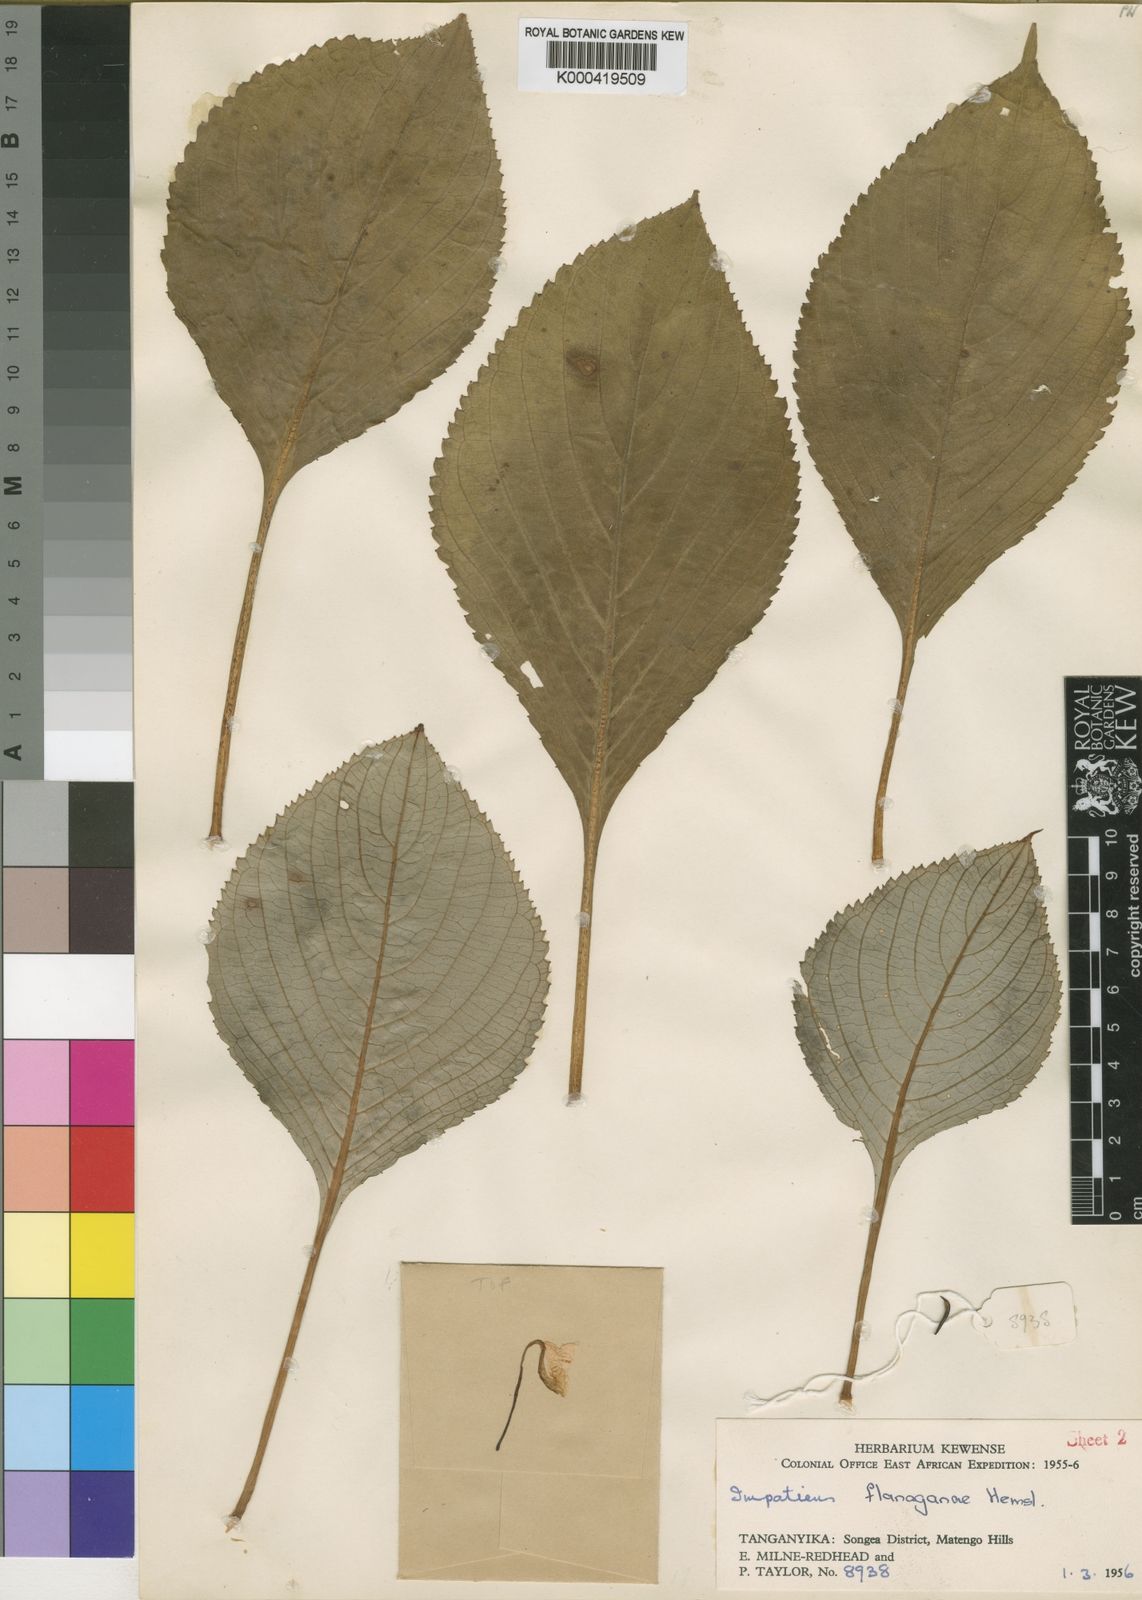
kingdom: Plantae
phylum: Tracheophyta
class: Magnoliopsida
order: Ericales
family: Balsaminaceae
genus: Impatiens
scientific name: Impatiens tinctoria
